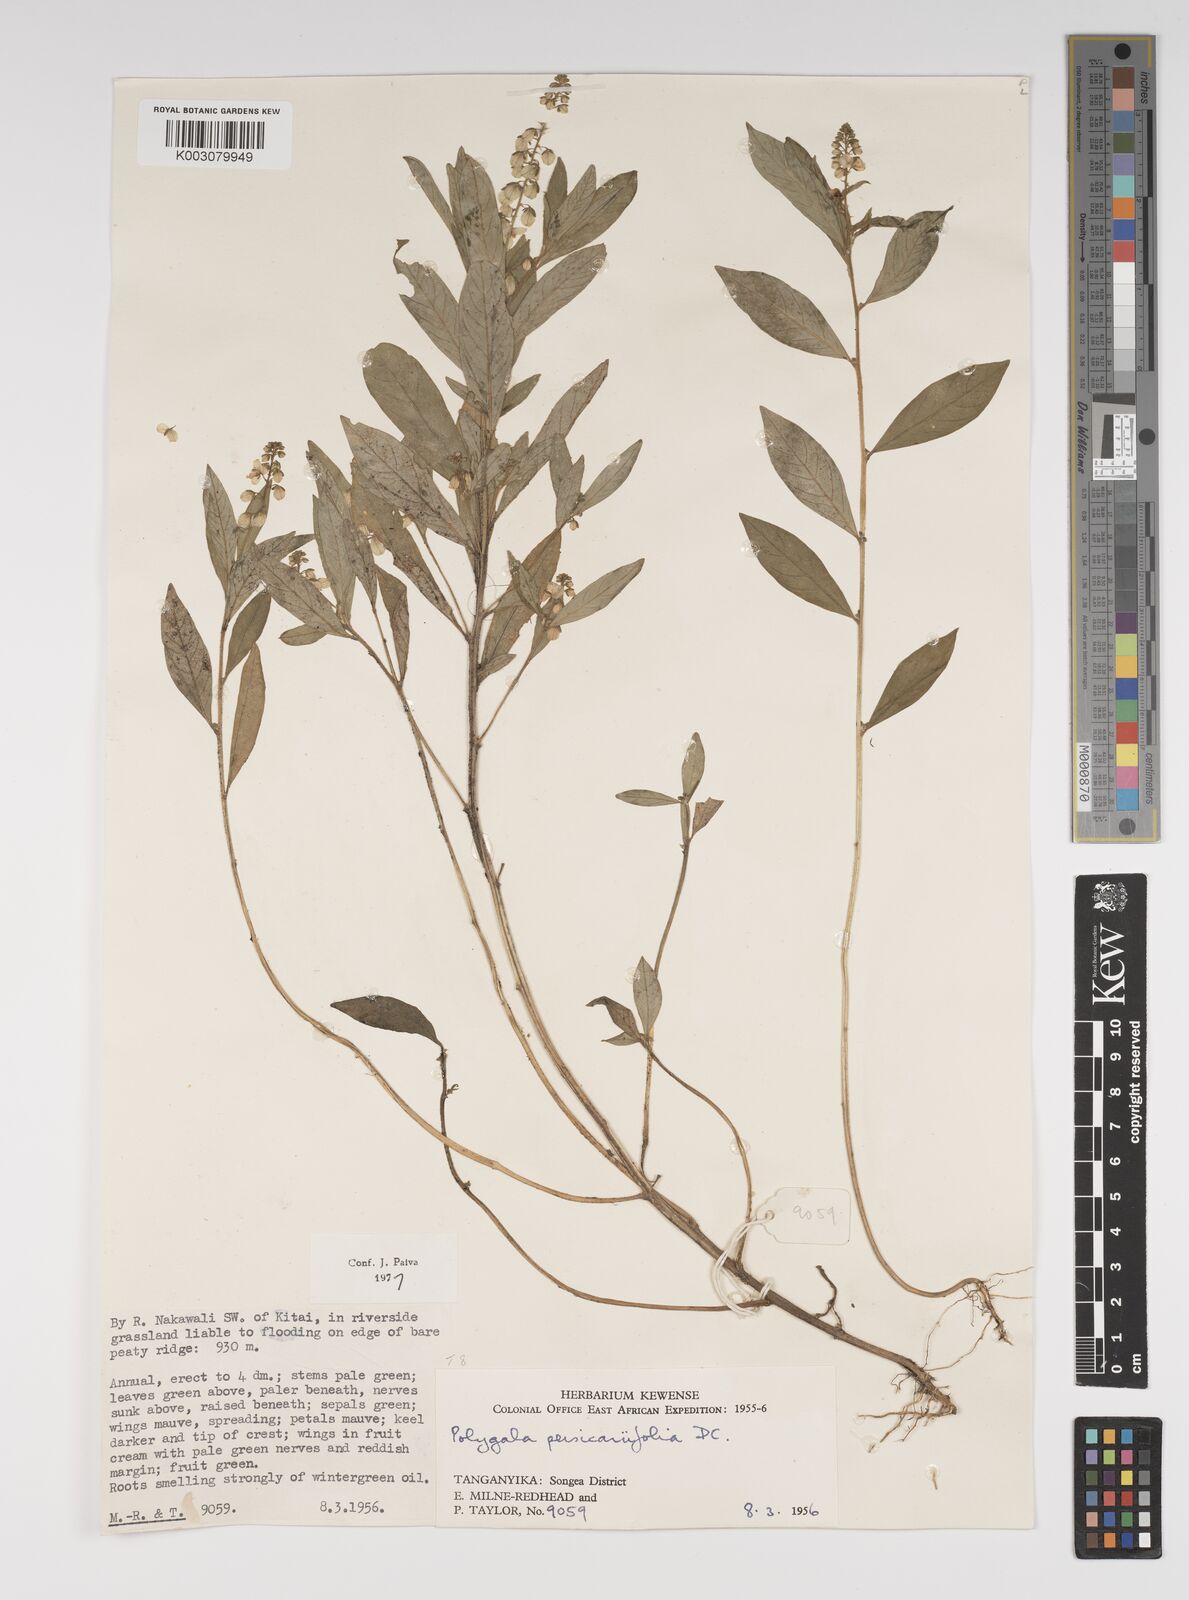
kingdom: Plantae
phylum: Tracheophyta
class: Magnoliopsida
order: Fabales
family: Polygalaceae
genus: Polygala
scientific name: Polygala persicariifolia
